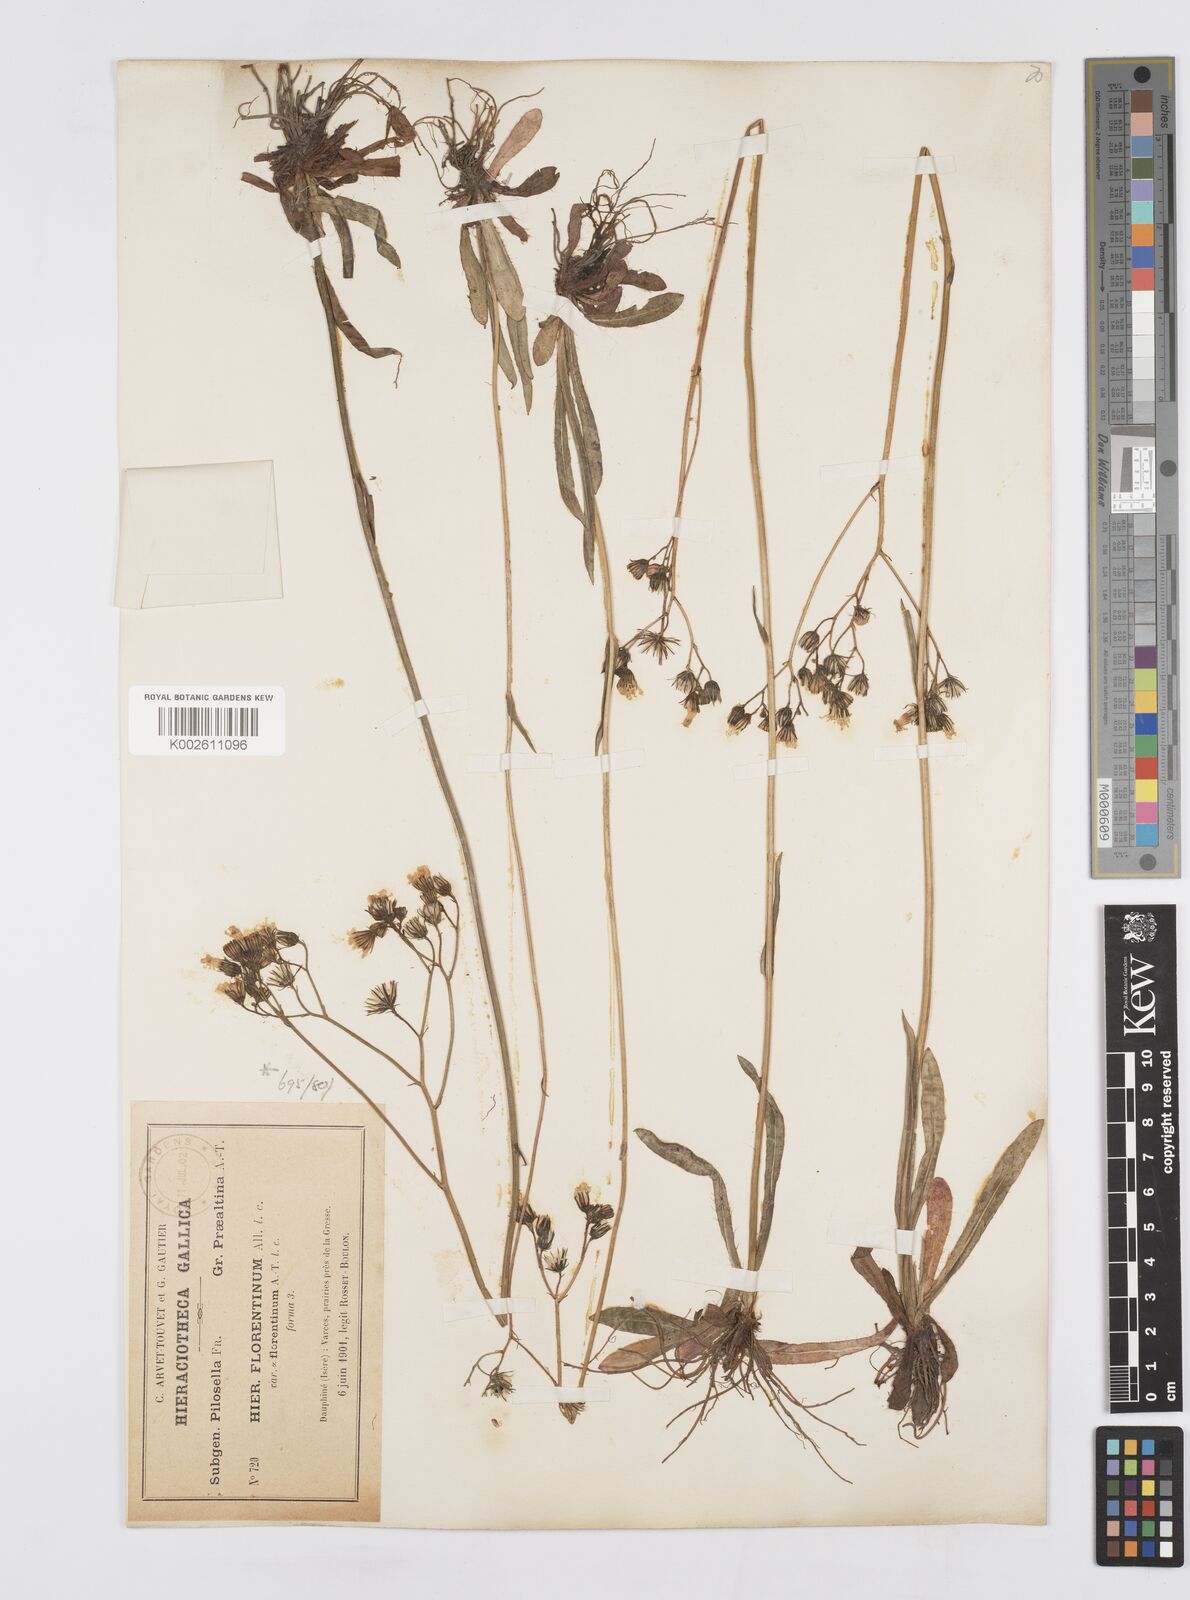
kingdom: Plantae
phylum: Tracheophyta
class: Magnoliopsida
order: Asterales
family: Asteraceae
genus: Pilosella
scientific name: Pilosella piloselloides
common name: Glaucous king-devil
